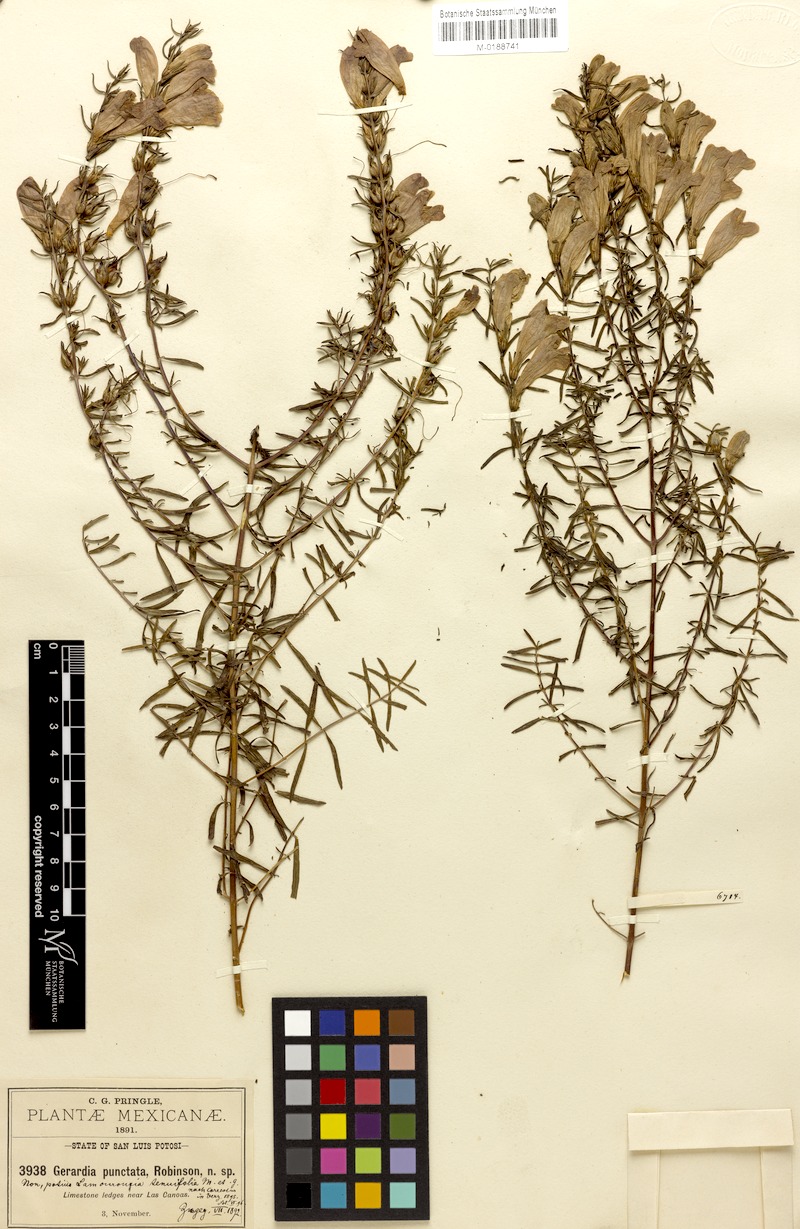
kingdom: Plantae
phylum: Tracheophyta
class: Magnoliopsida
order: Lamiales
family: Orobanchaceae
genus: Lamourouxia
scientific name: Lamourouxia dasyantha
